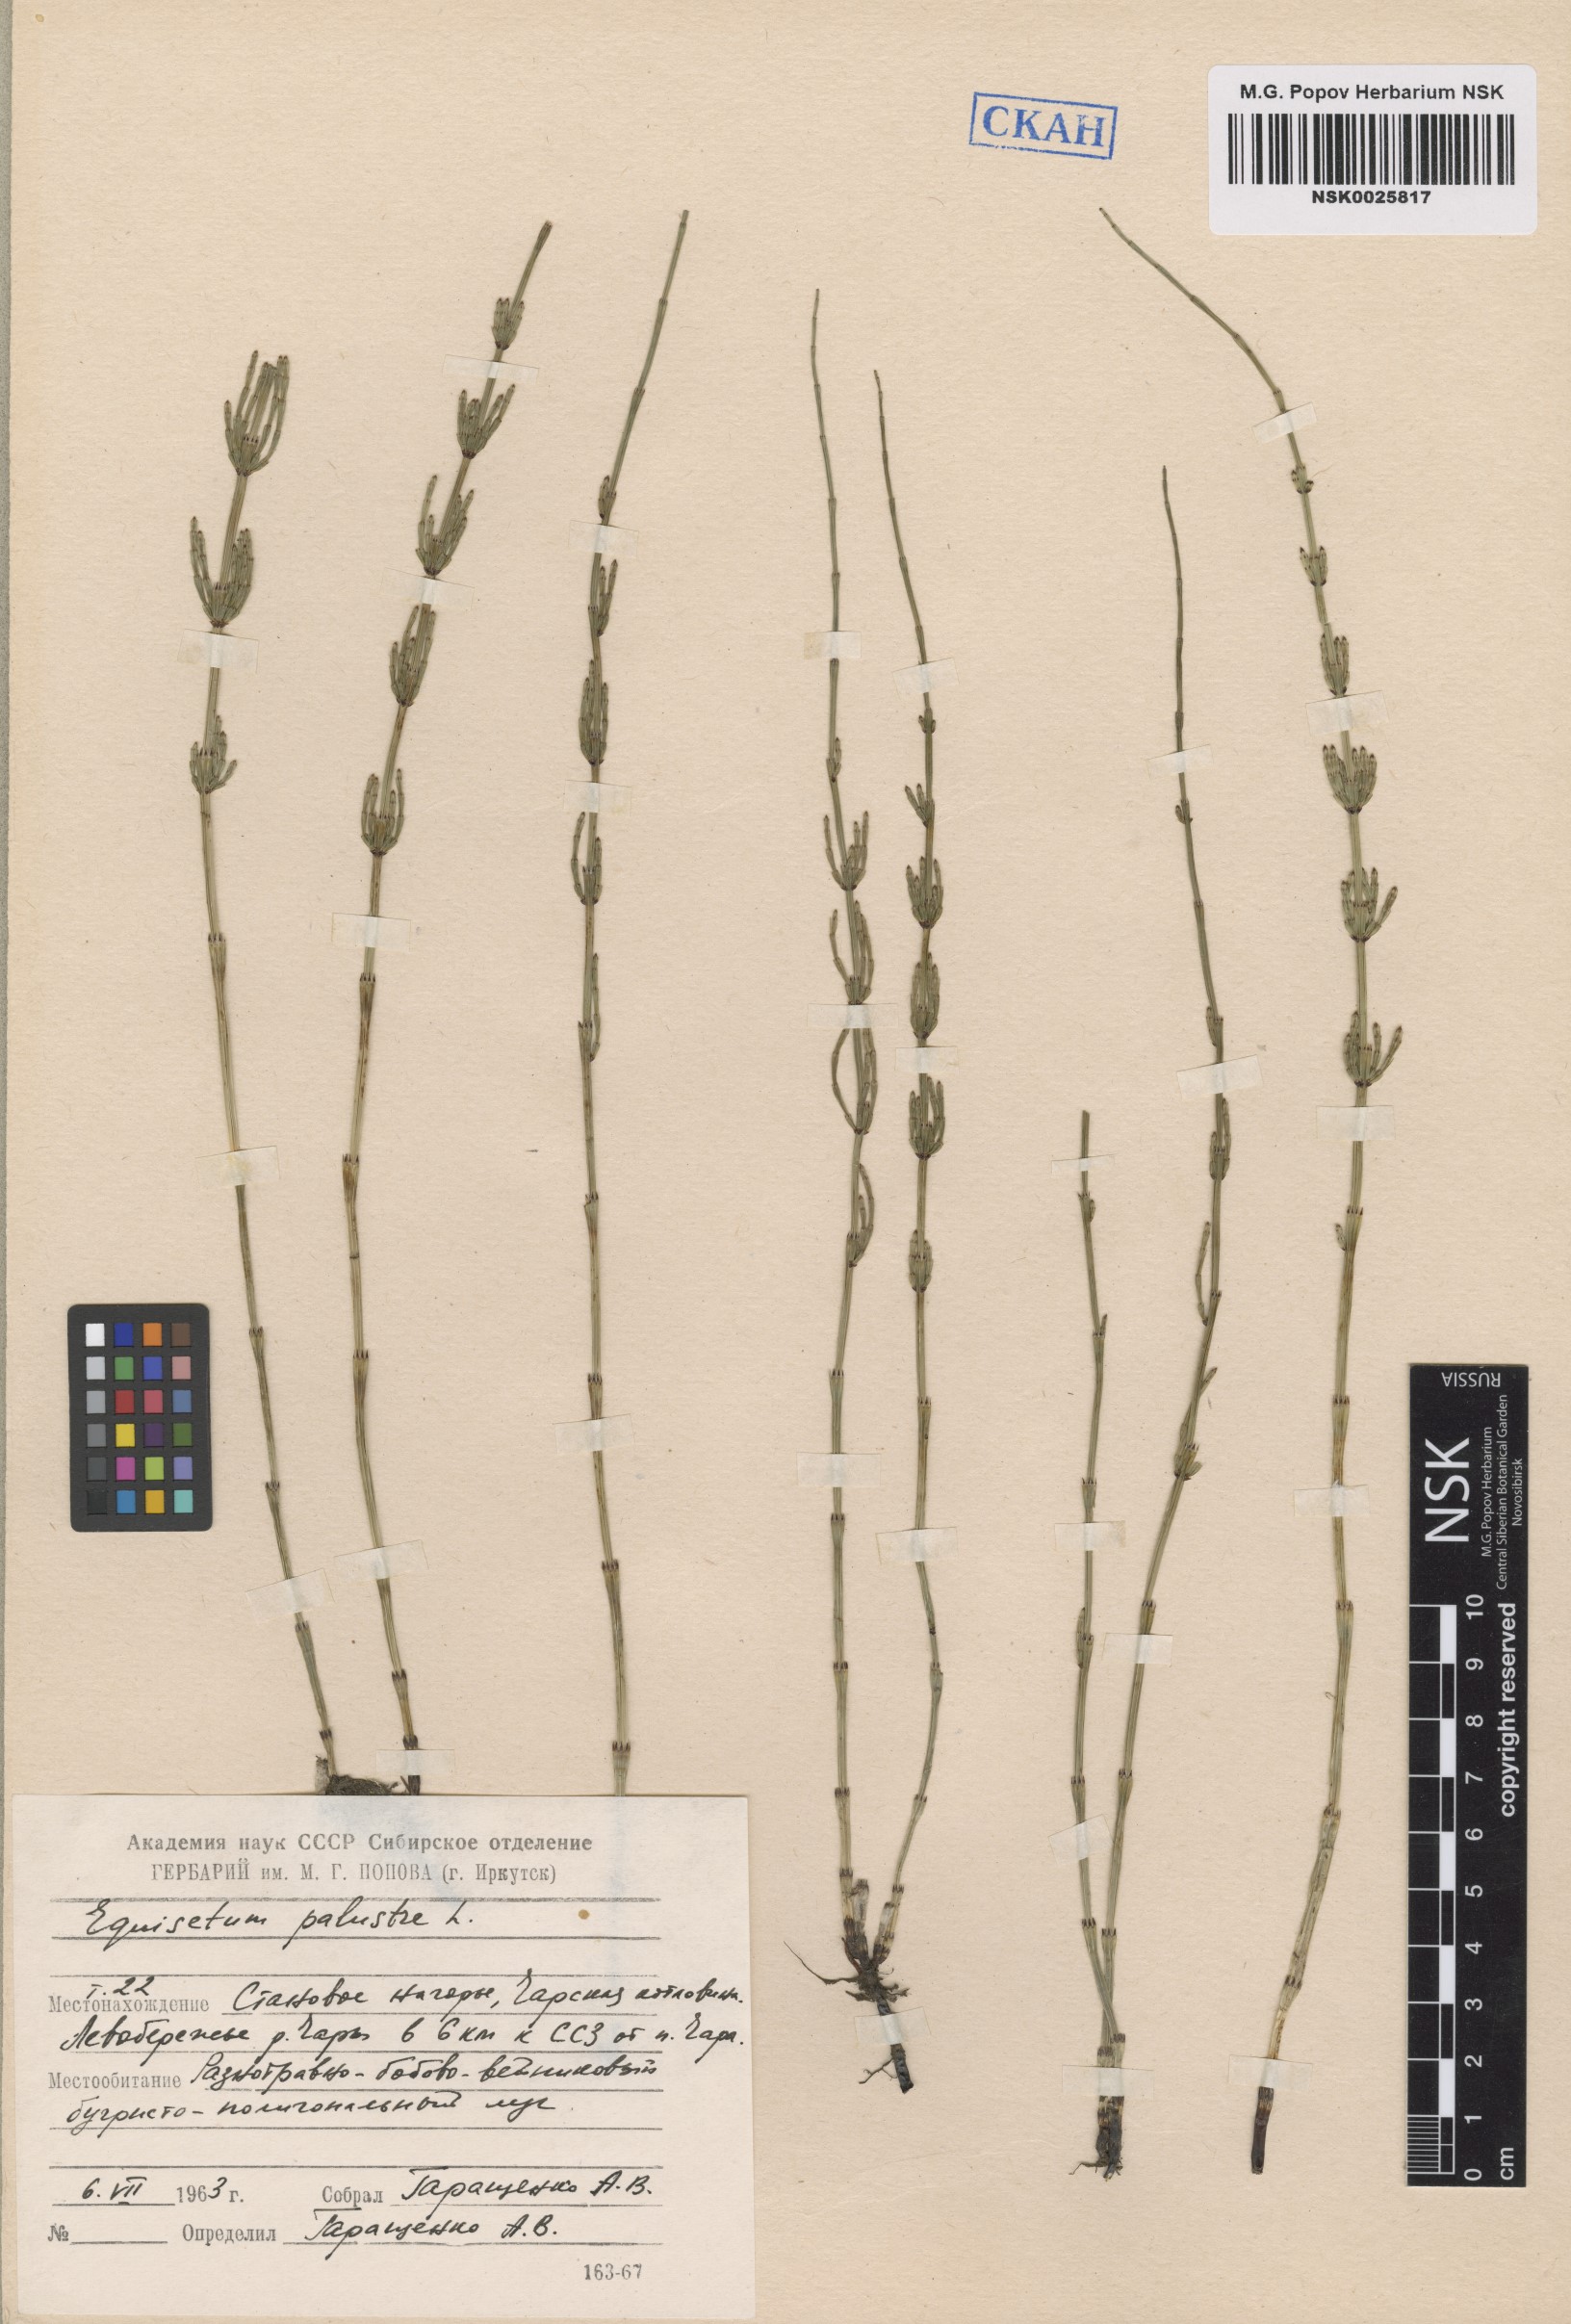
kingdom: Plantae
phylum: Tracheophyta
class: Polypodiopsida
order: Equisetales
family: Equisetaceae
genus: Equisetum
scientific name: Equisetum palustre
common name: Marsh horsetail
